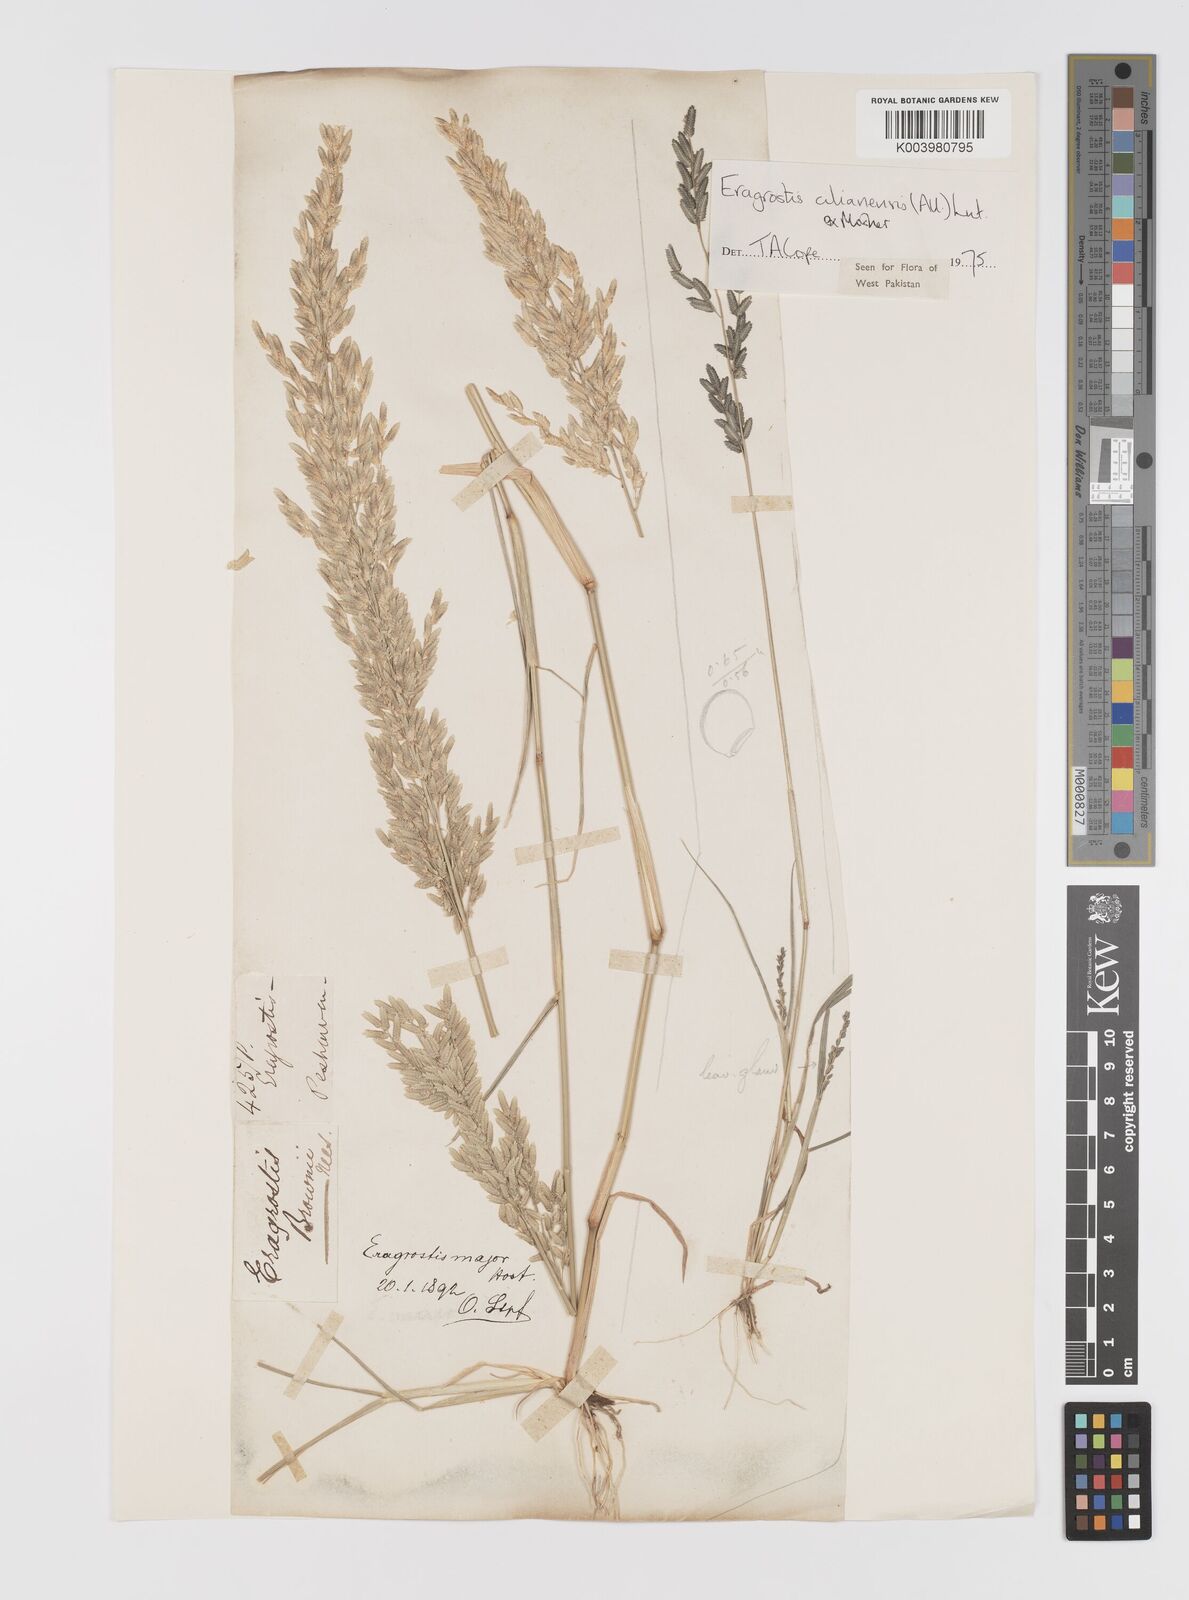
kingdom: Plantae
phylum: Tracheophyta
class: Liliopsida
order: Poales
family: Poaceae
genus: Eragrostis
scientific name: Eragrostis cilianensis
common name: Stinkgrass
